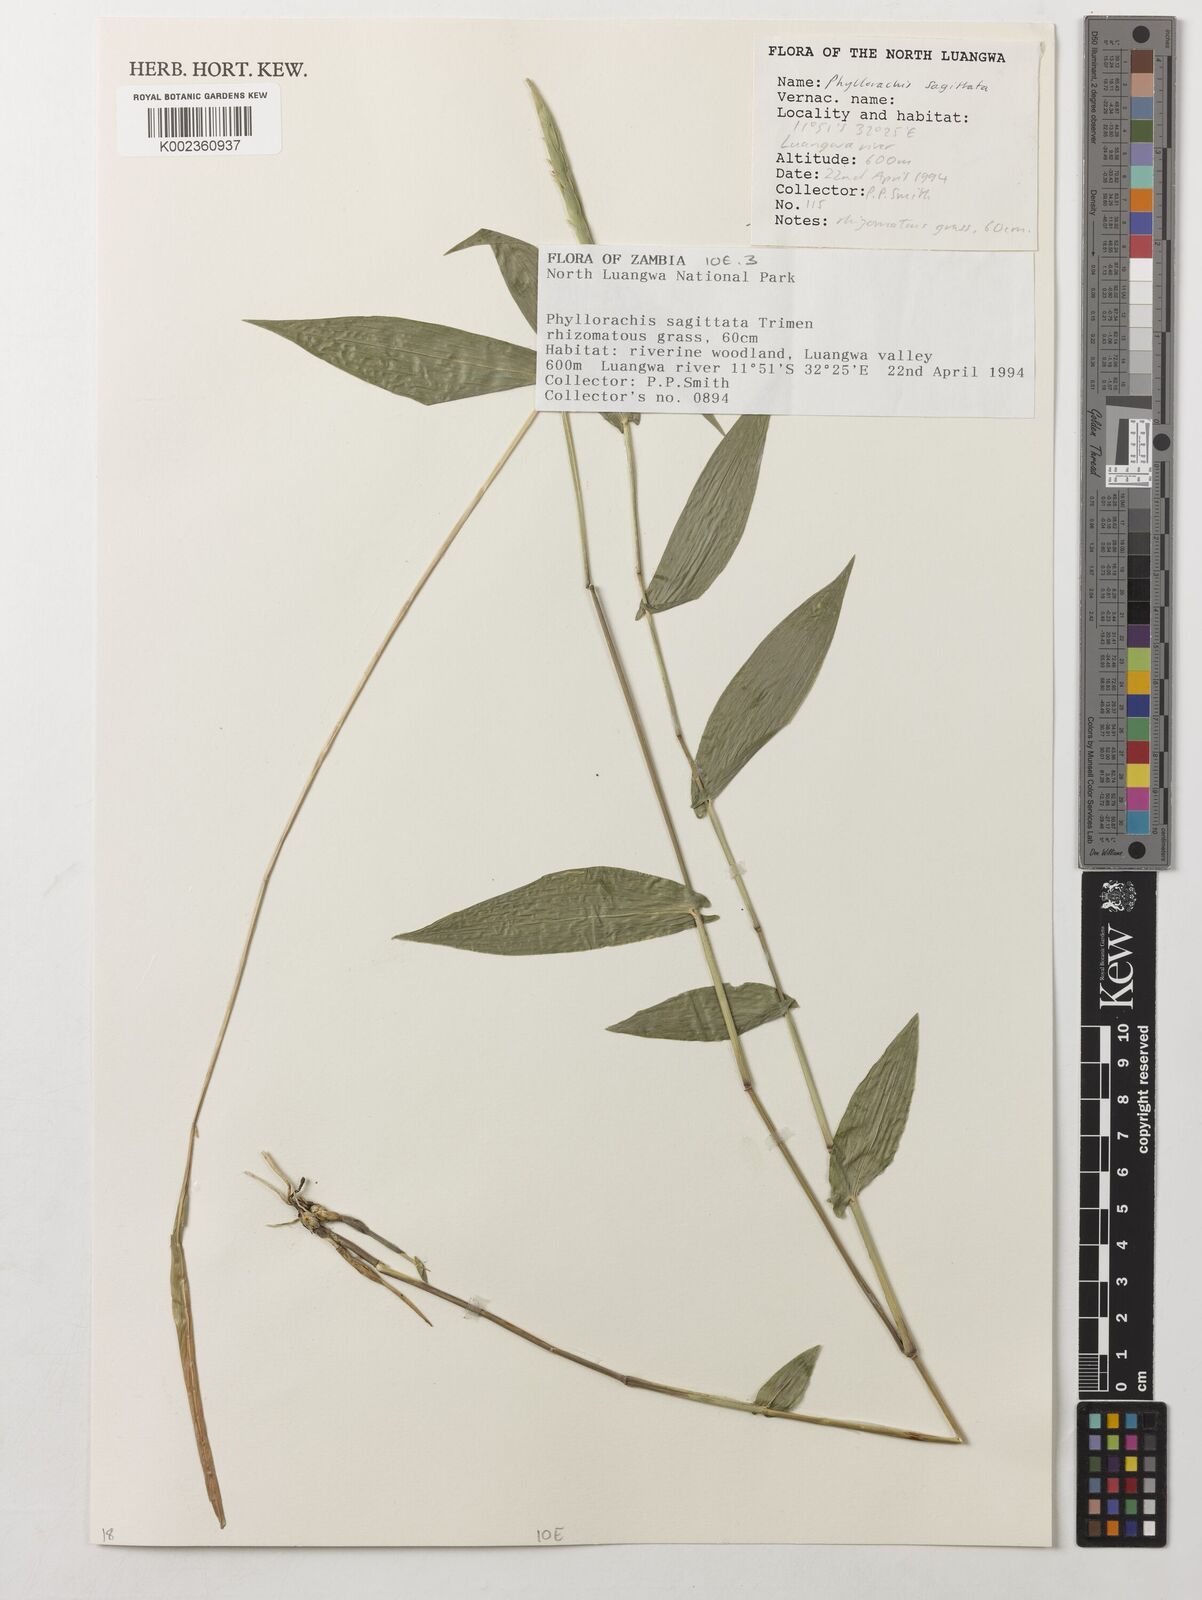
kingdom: Plantae
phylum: Tracheophyta
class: Liliopsida
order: Poales
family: Poaceae
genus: Phyllorachis
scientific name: Phyllorachis sagittata
